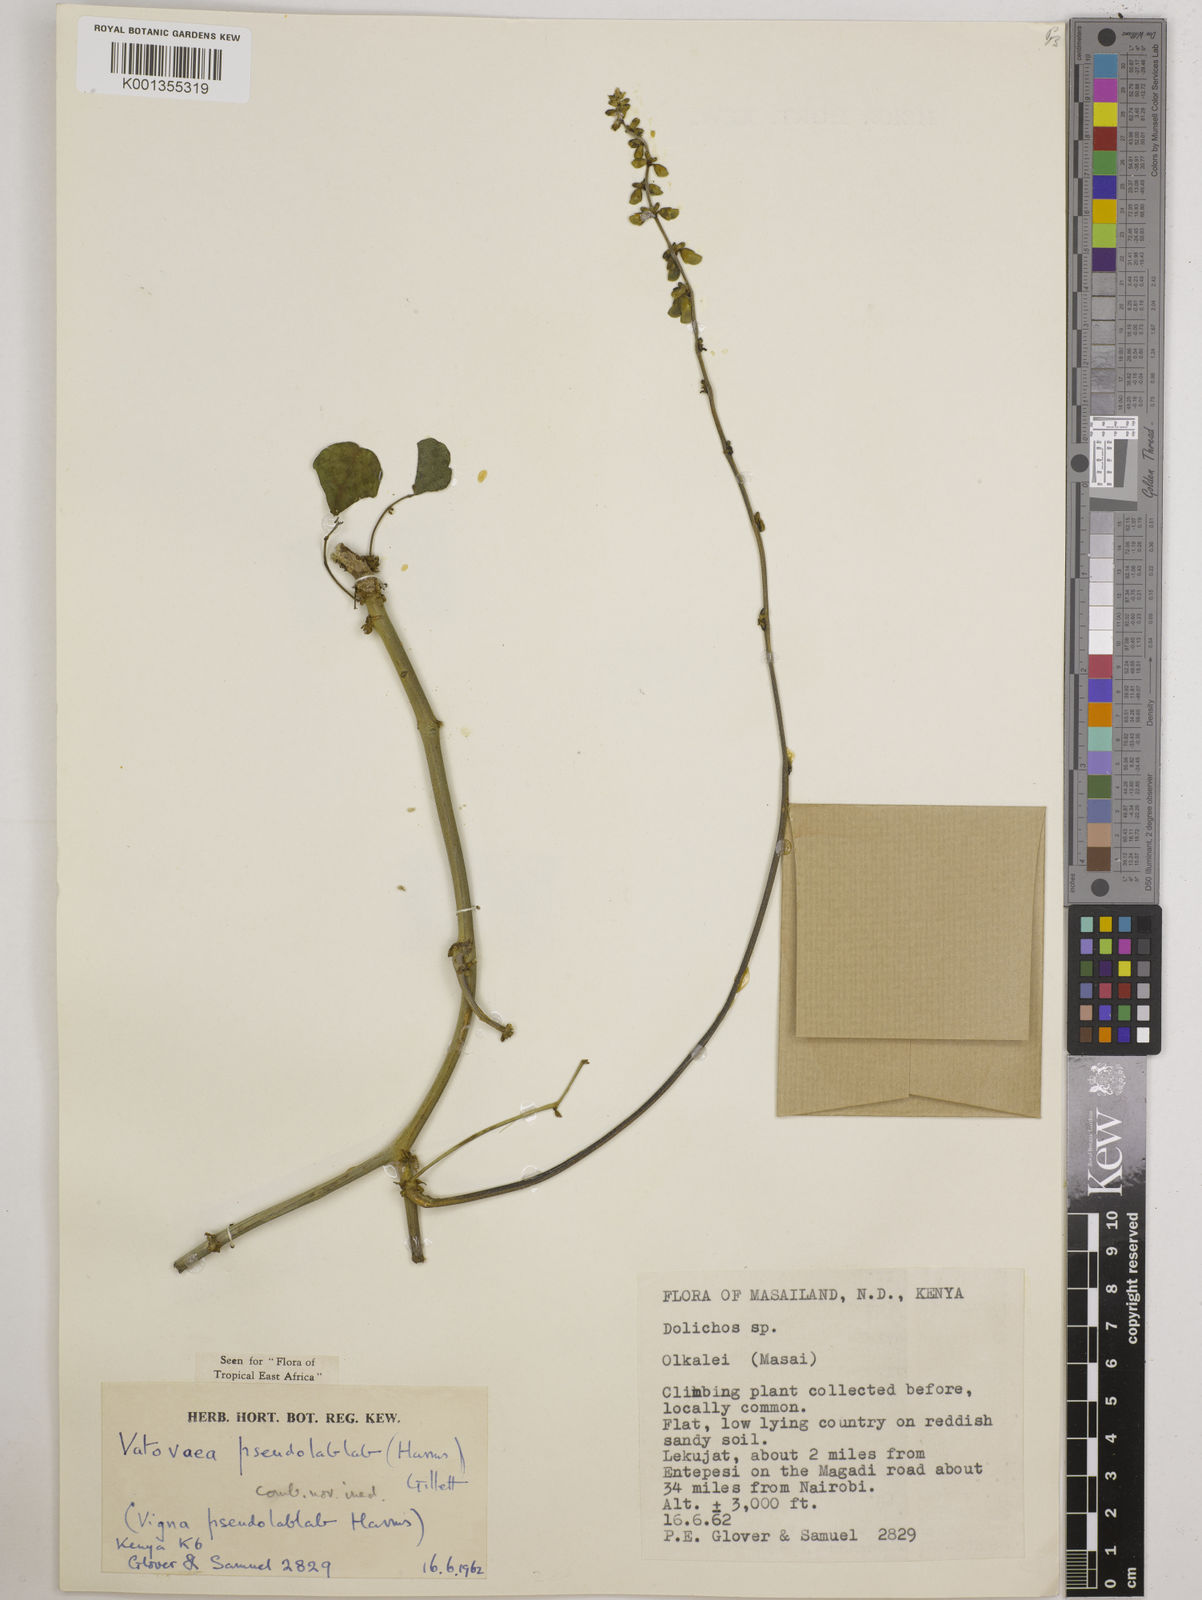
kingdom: Plantae
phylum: Tracheophyta
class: Magnoliopsida
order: Fabales
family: Fabaceae
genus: Vatovaea
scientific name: Vatovaea pseudolablab
